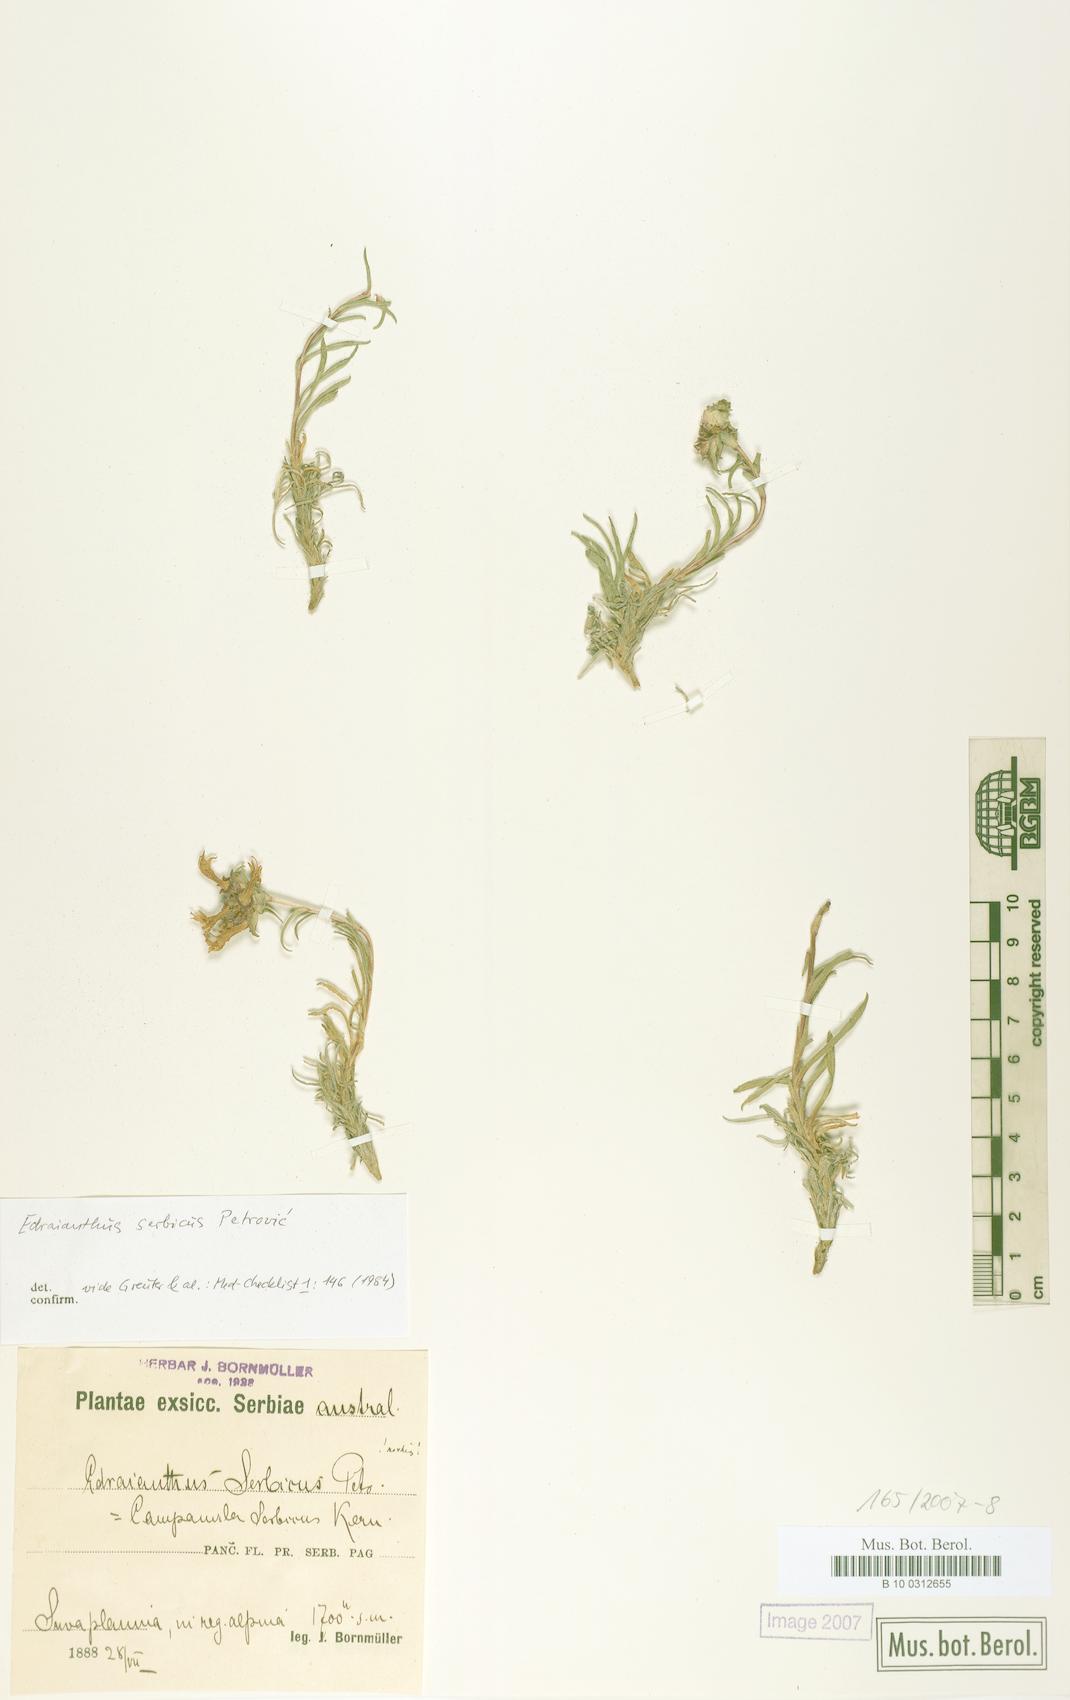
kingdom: Plantae
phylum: Tracheophyta
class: Magnoliopsida
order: Asterales
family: Campanulaceae
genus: Edraianthus
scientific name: Edraianthus serbicus
